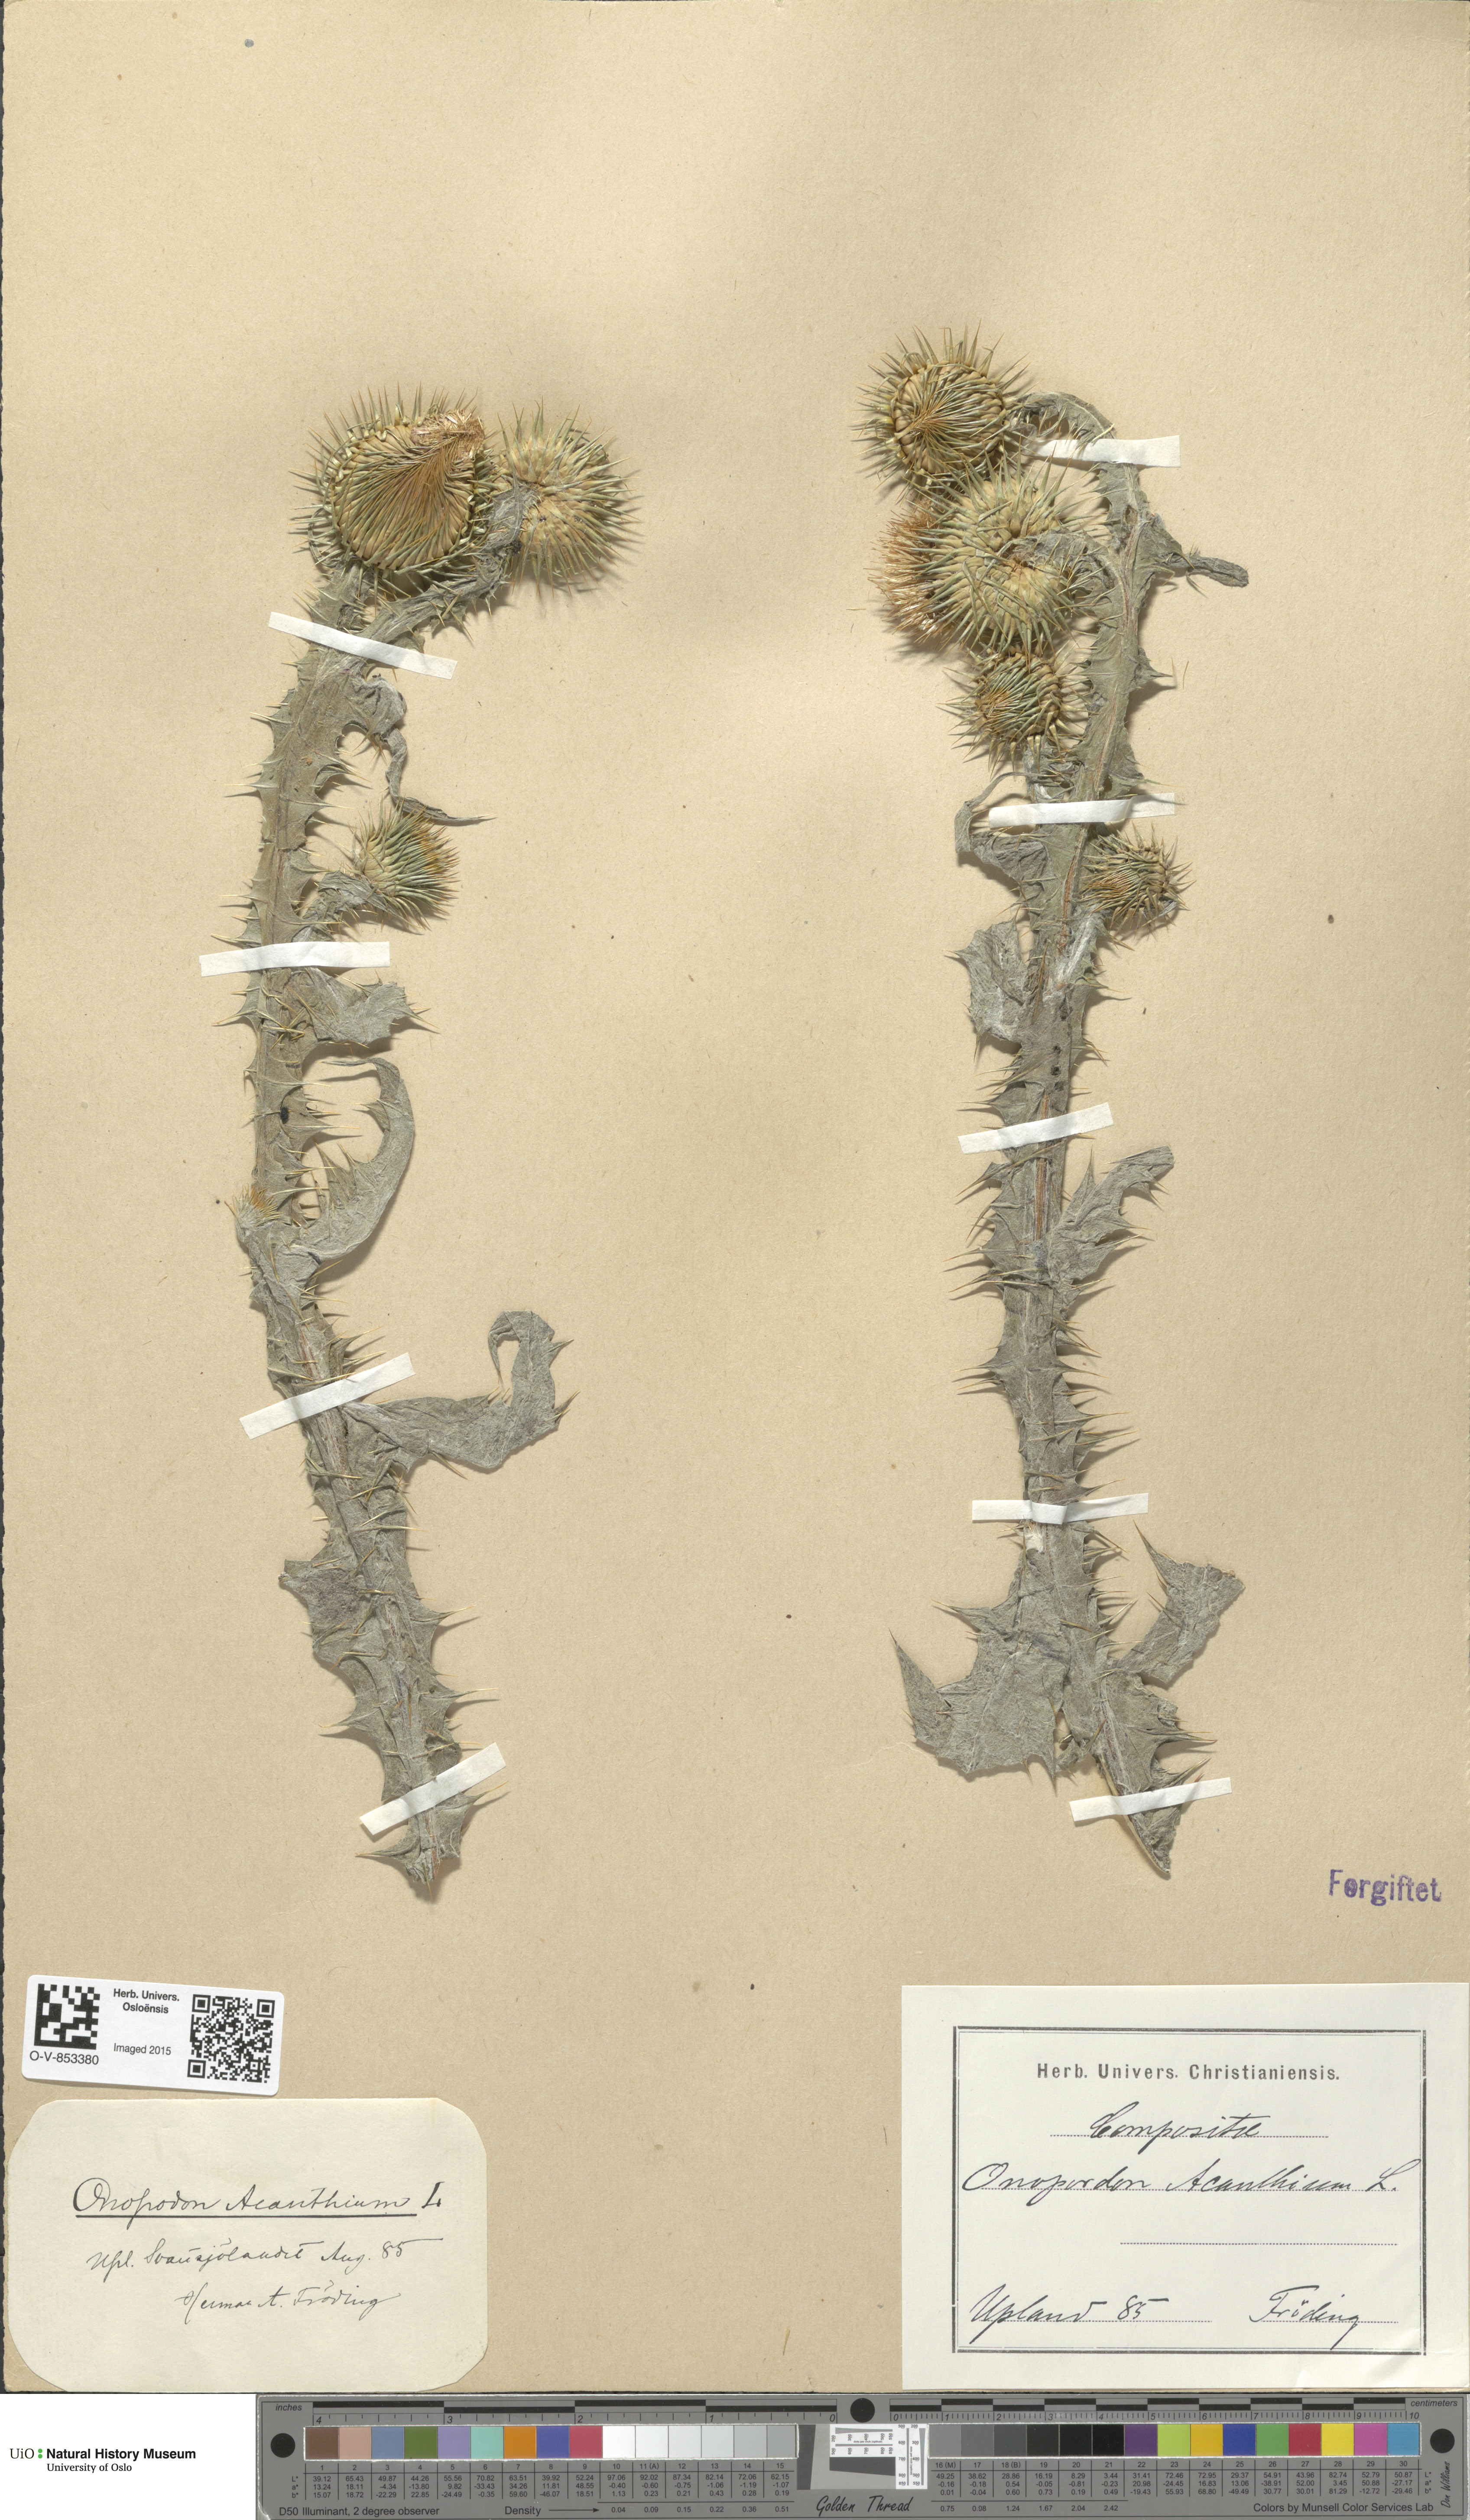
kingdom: Plantae
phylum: Tracheophyta
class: Magnoliopsida
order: Asterales
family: Asteraceae
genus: Onopordum
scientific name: Onopordum acanthium
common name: Scotch thistle
